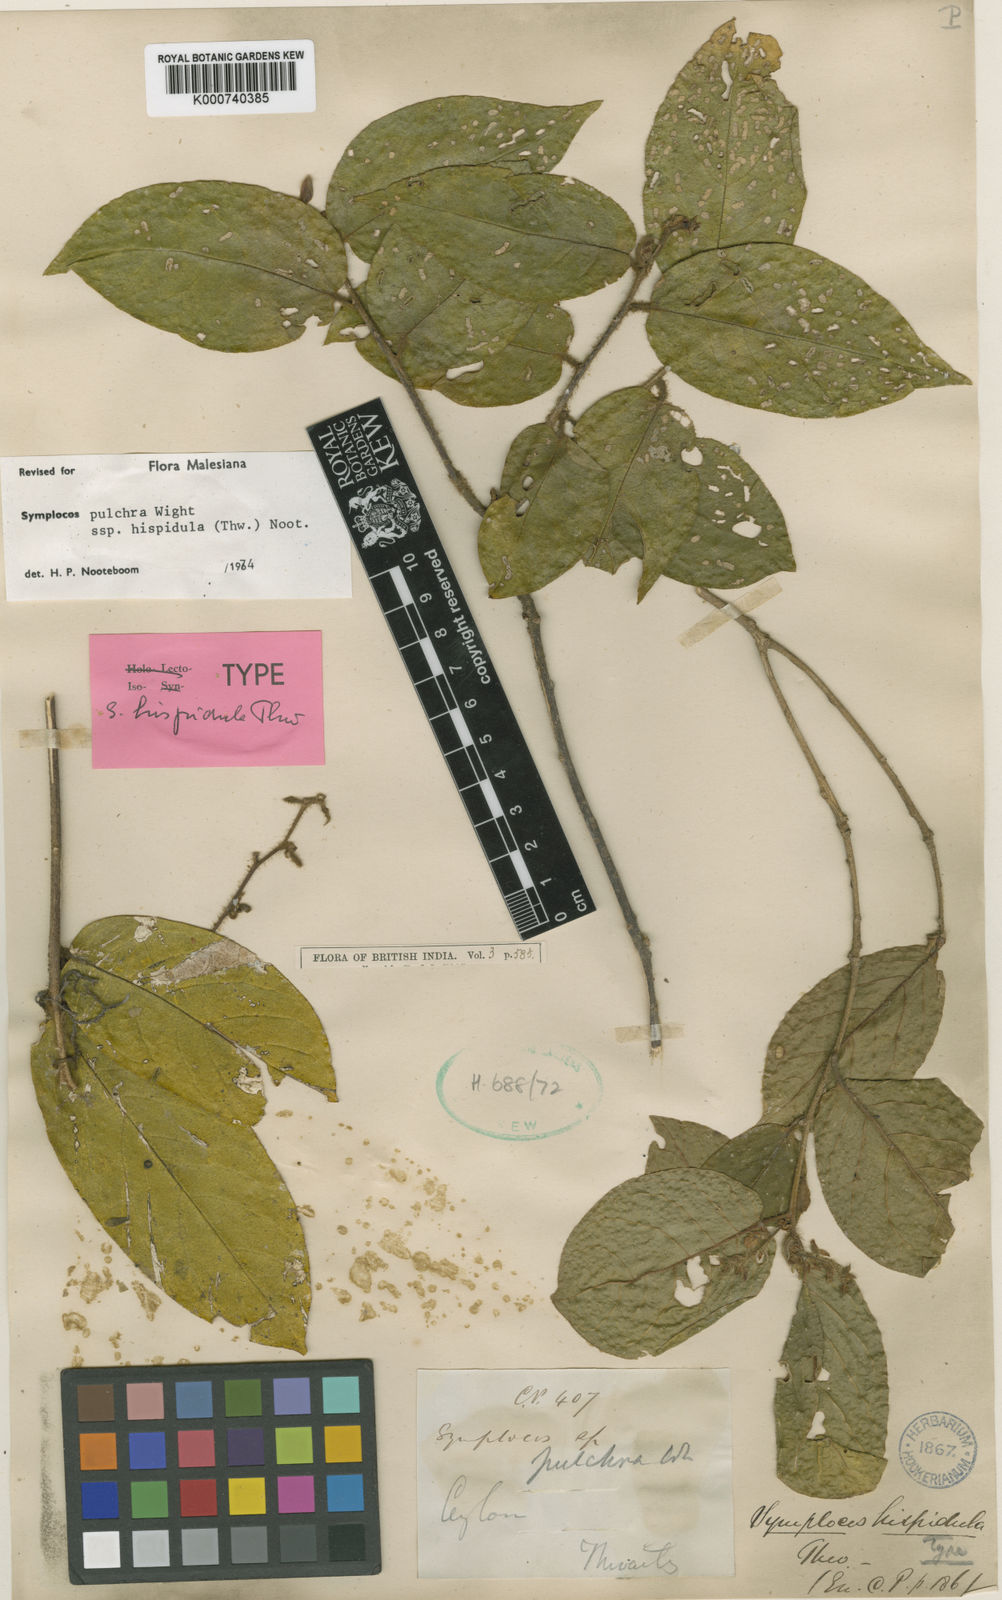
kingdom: Plantae
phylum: Tracheophyta
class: Magnoliopsida
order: Ericales
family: Symplocaceae
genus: Symplocos
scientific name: Symplocos pulchra
